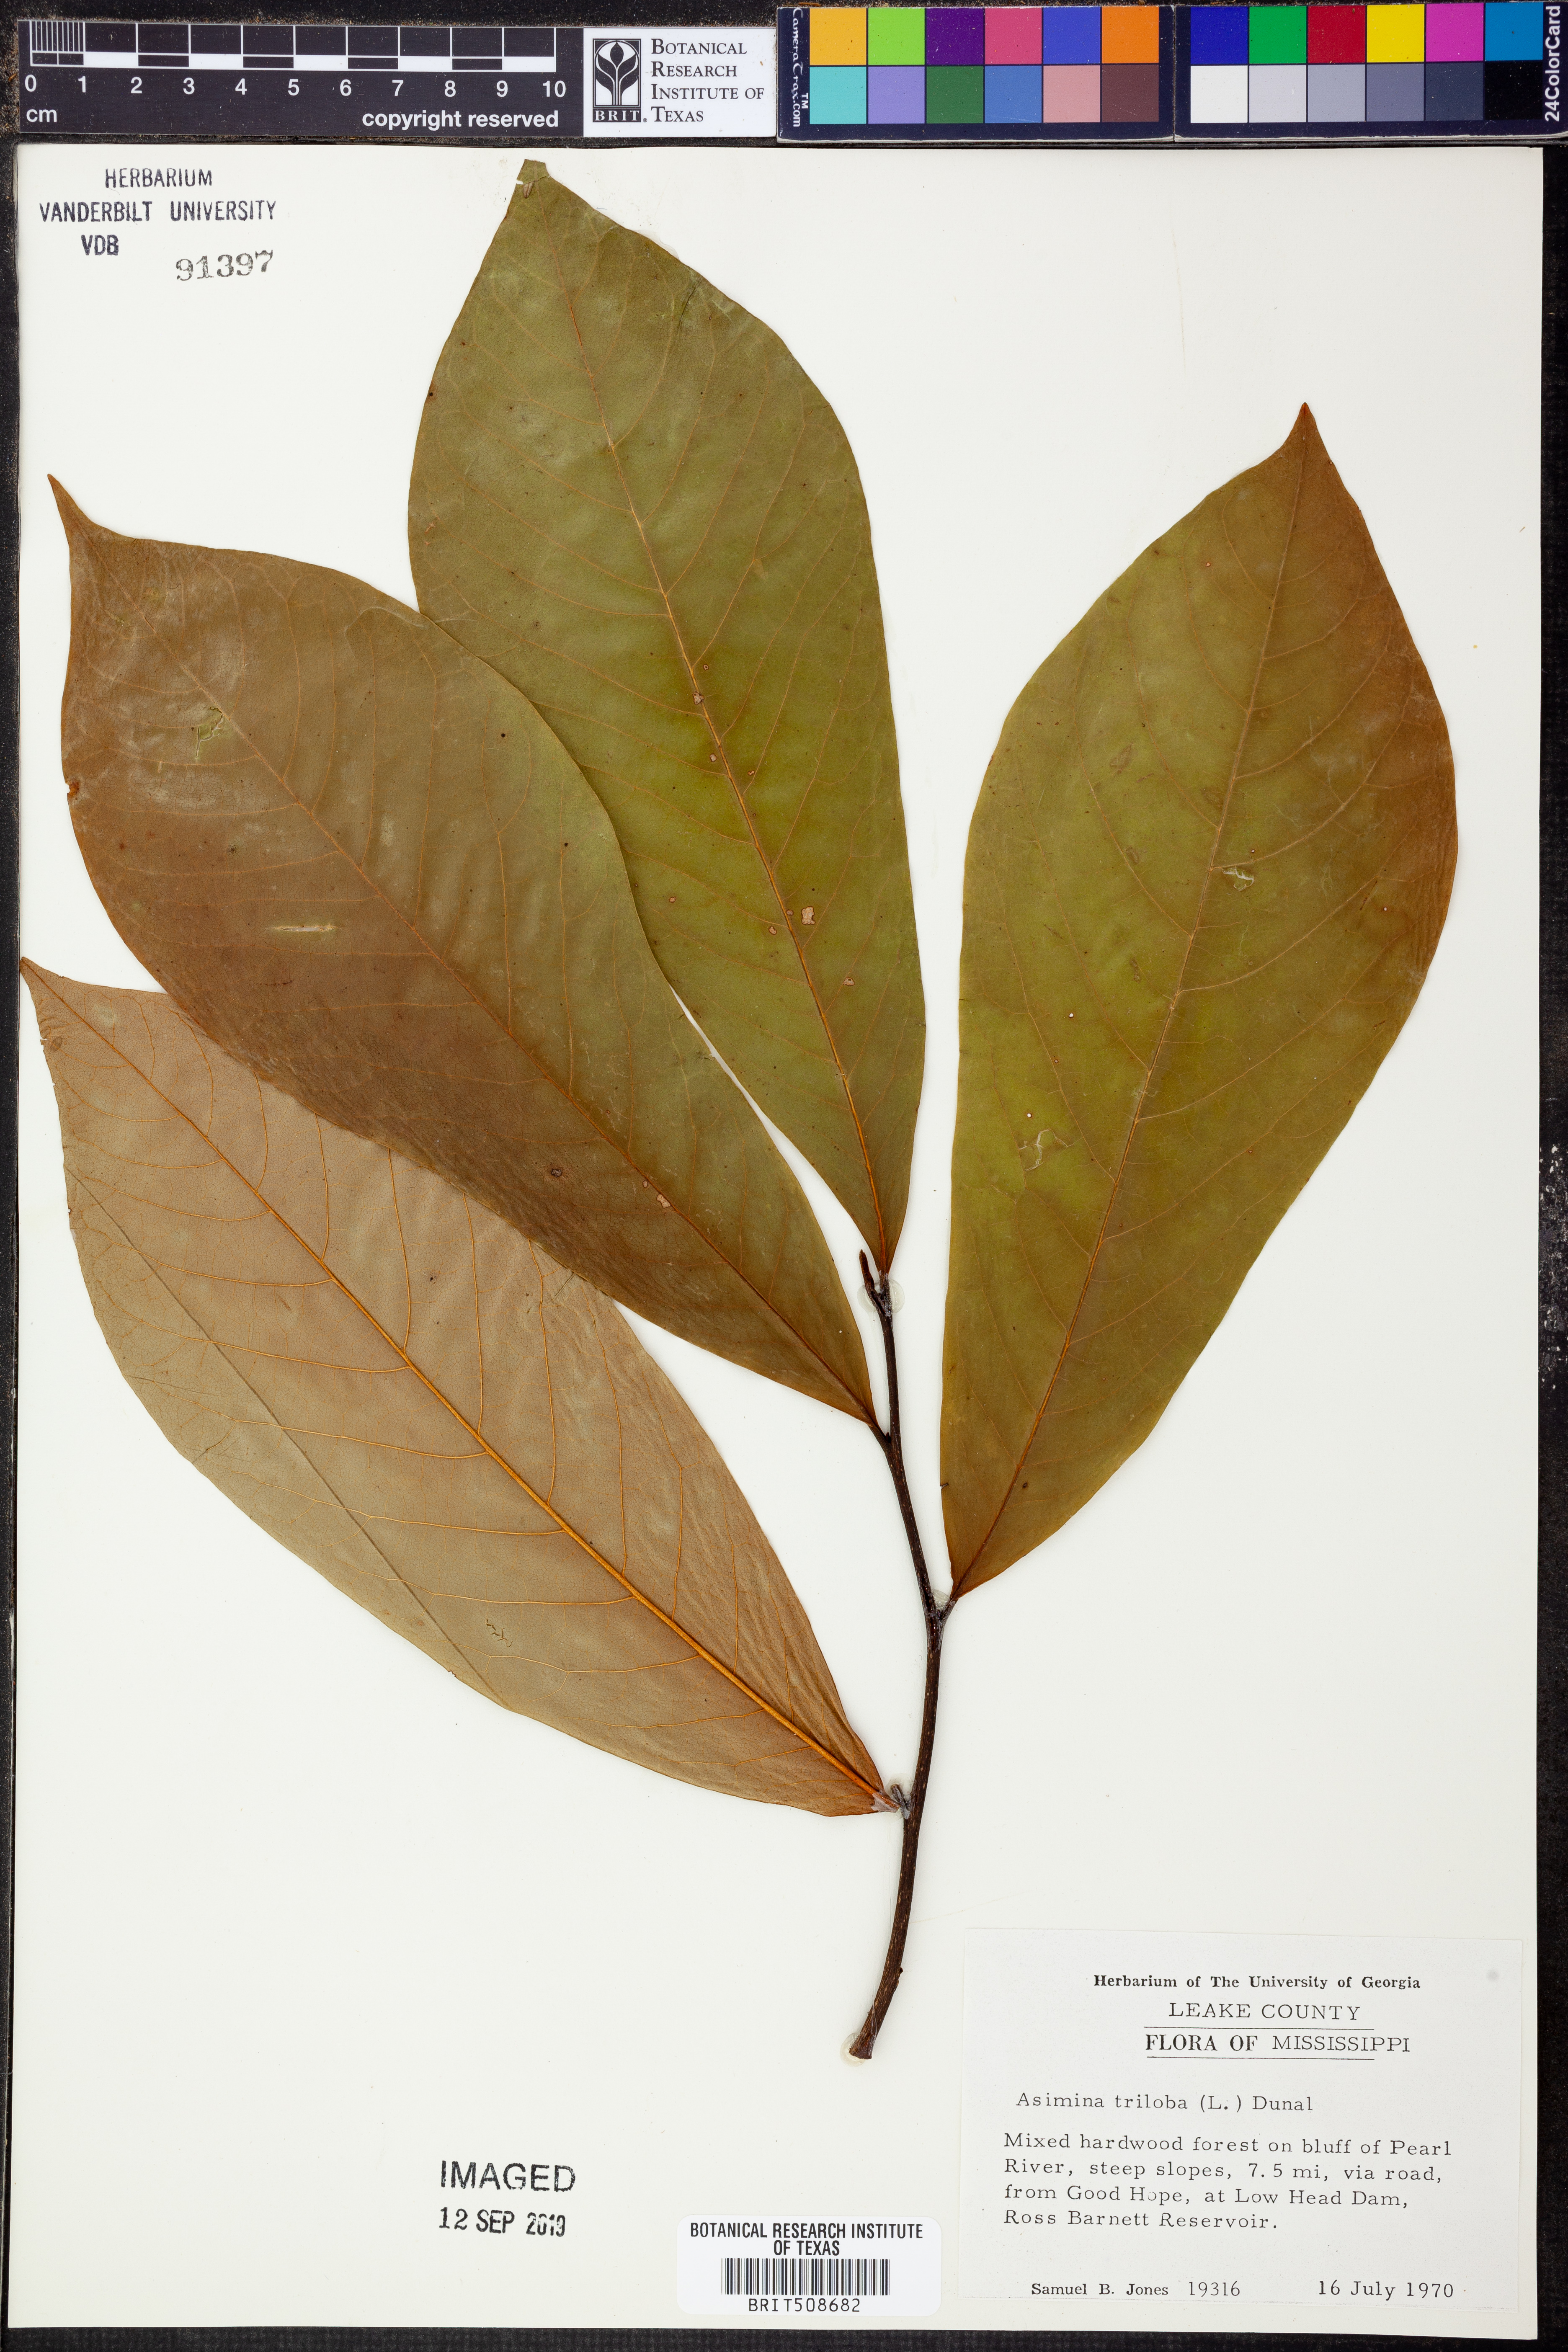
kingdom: Plantae
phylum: Tracheophyta
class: Magnoliopsida
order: Magnoliales
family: Annonaceae
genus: Asimina
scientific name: Asimina triloba
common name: Dog-banana
